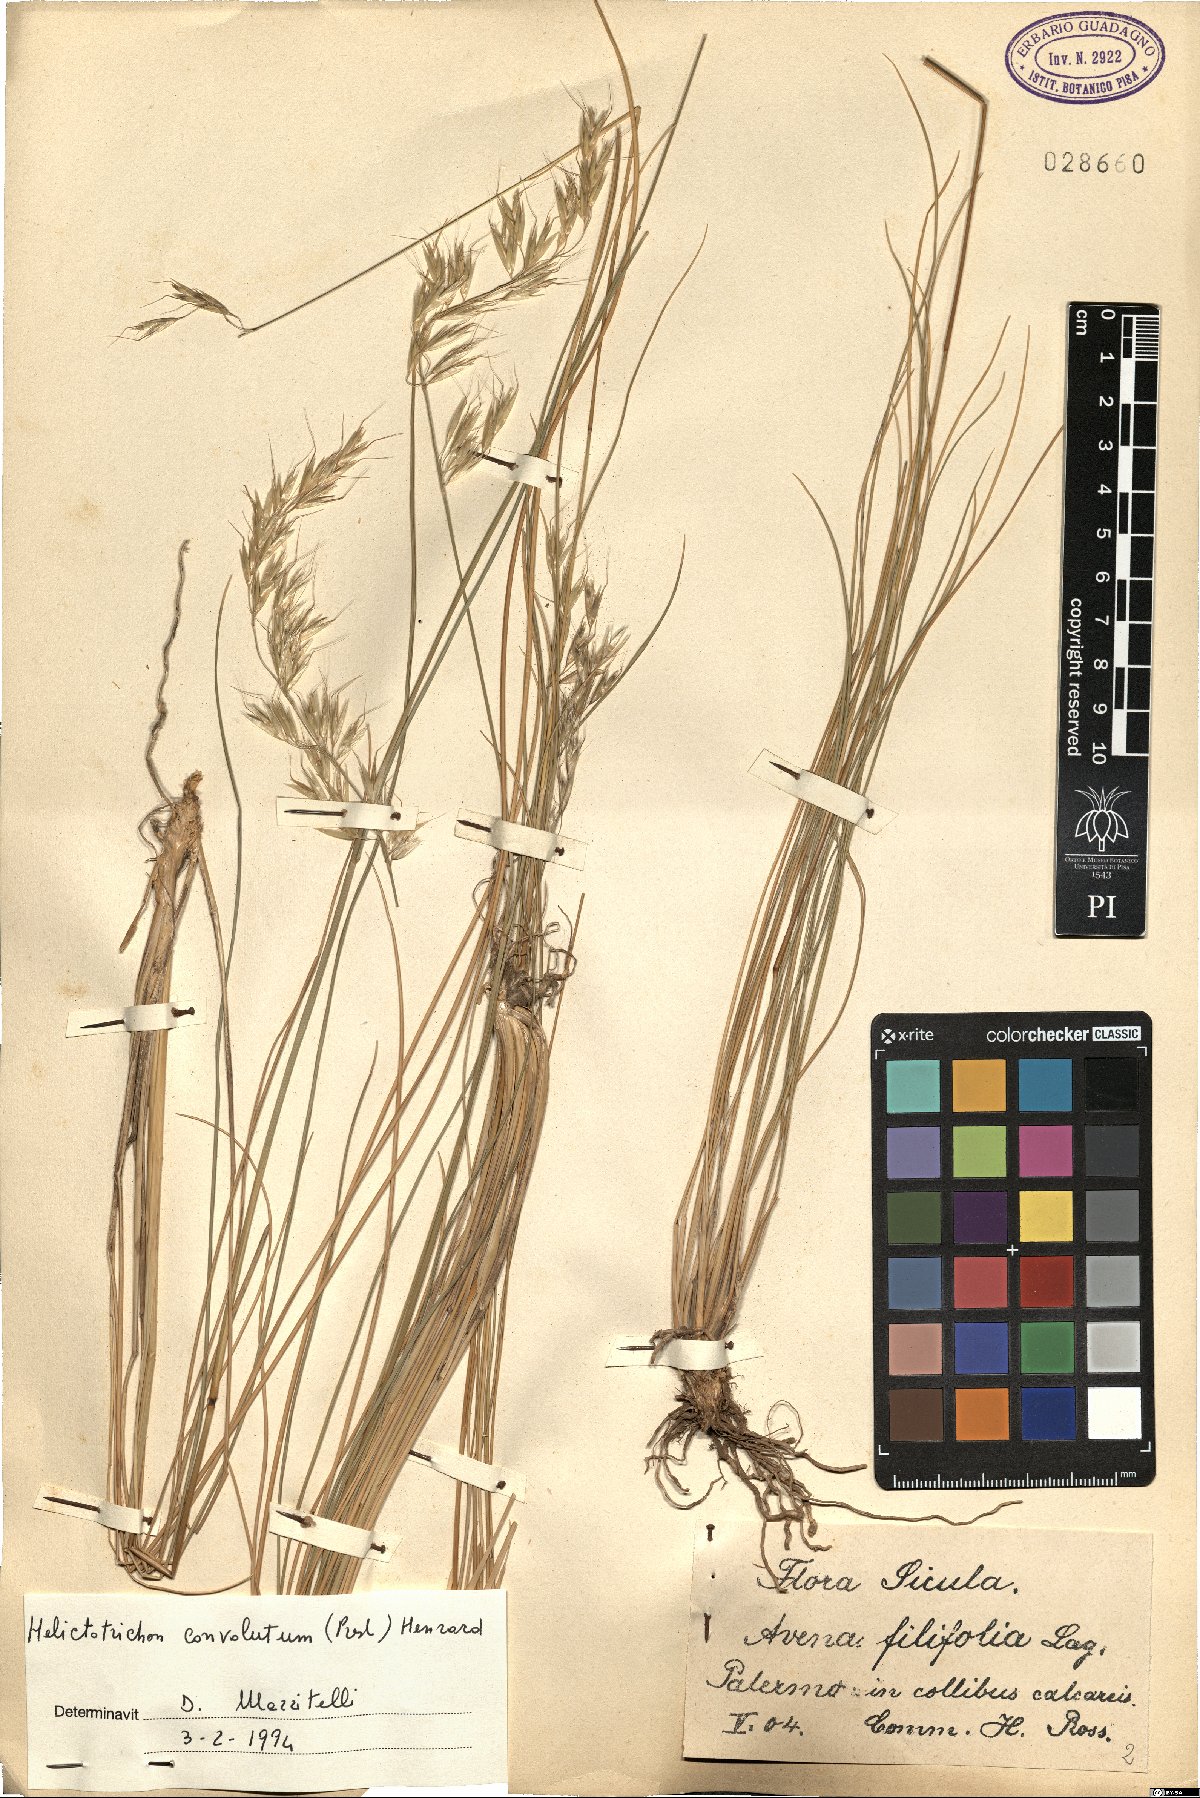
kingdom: Plantae
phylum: Tracheophyta
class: Liliopsida
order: Poales
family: Poaceae
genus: Helictotrichon
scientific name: Helictotrichon convolutum
